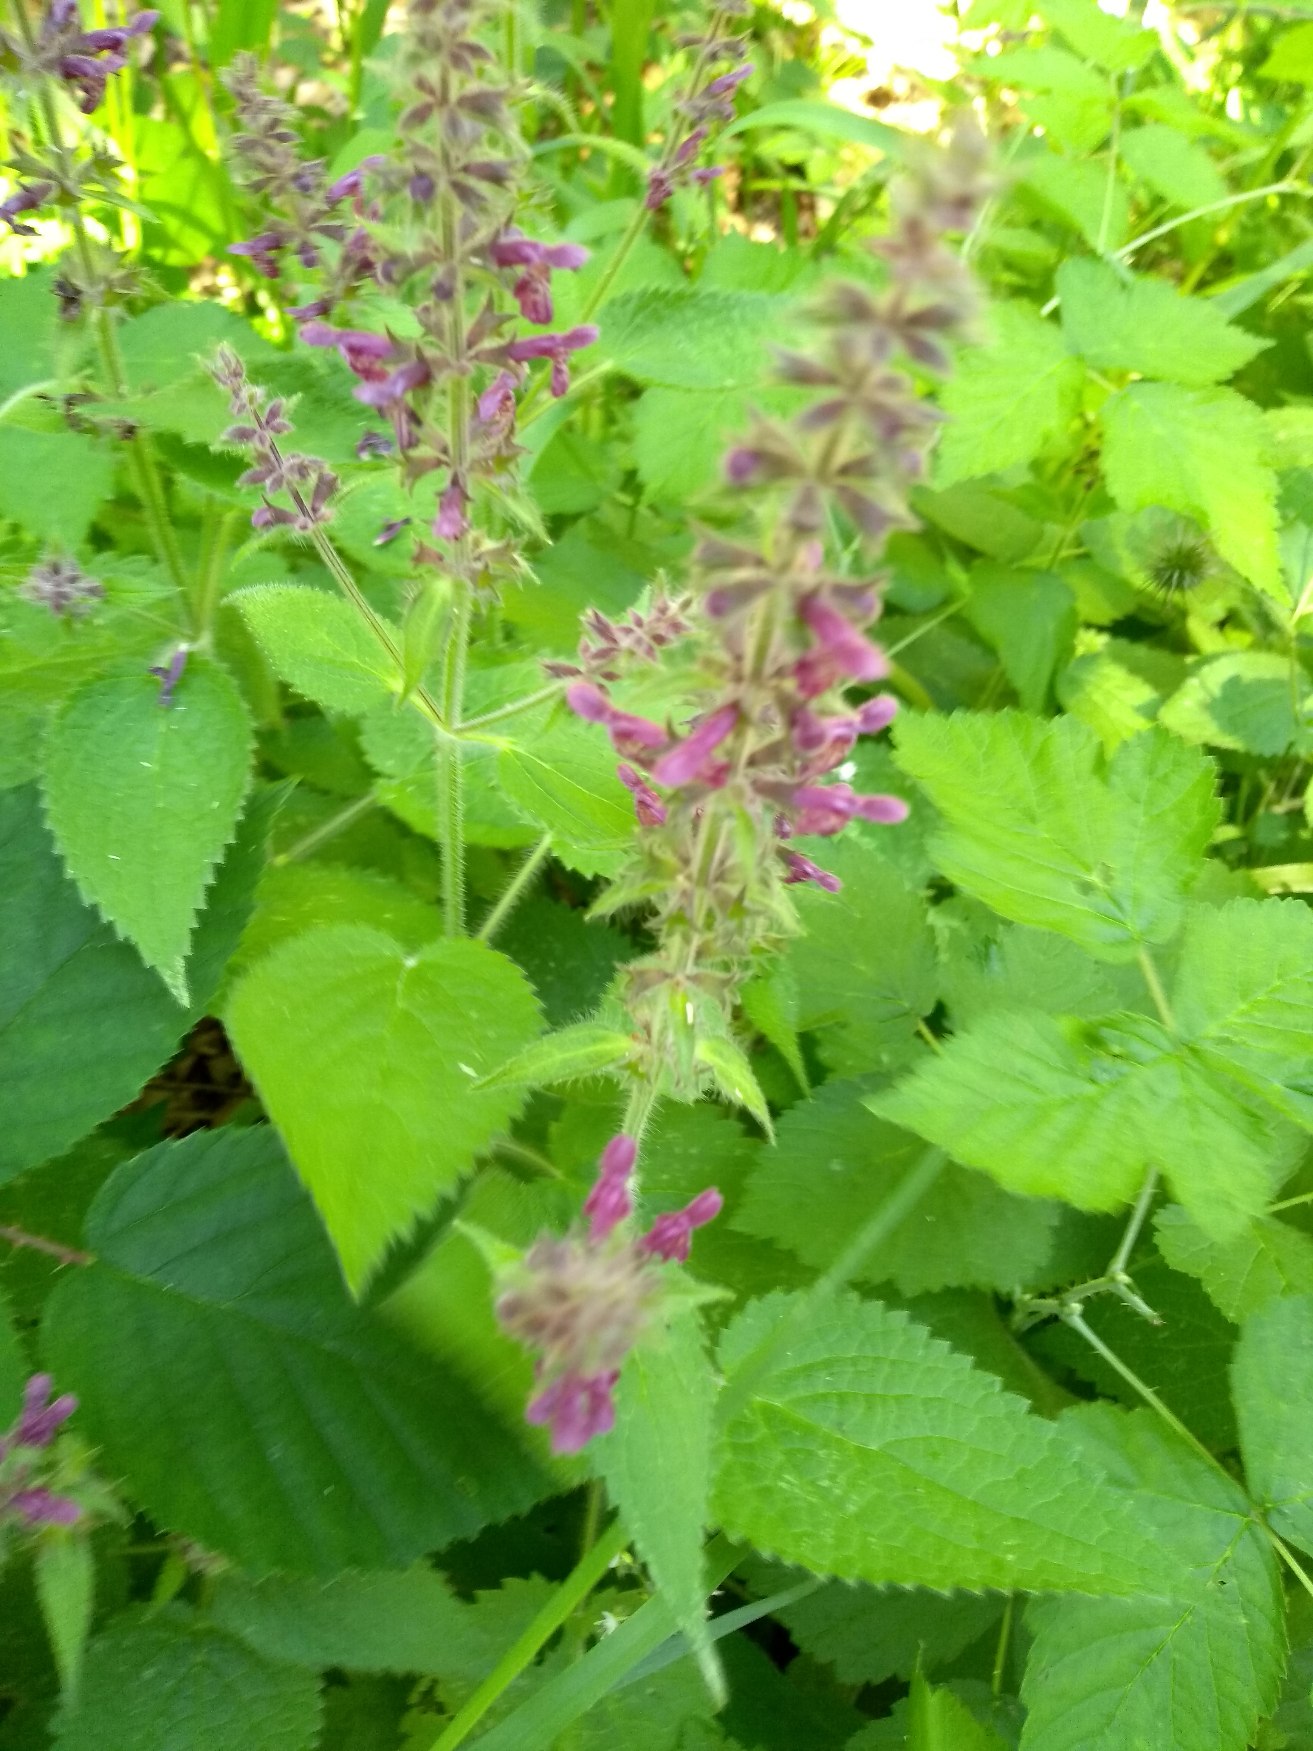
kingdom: Plantae
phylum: Tracheophyta
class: Magnoliopsida
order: Lamiales
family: Lamiaceae
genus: Stachys
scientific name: Stachys sylvatica
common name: Skov-galtetand
